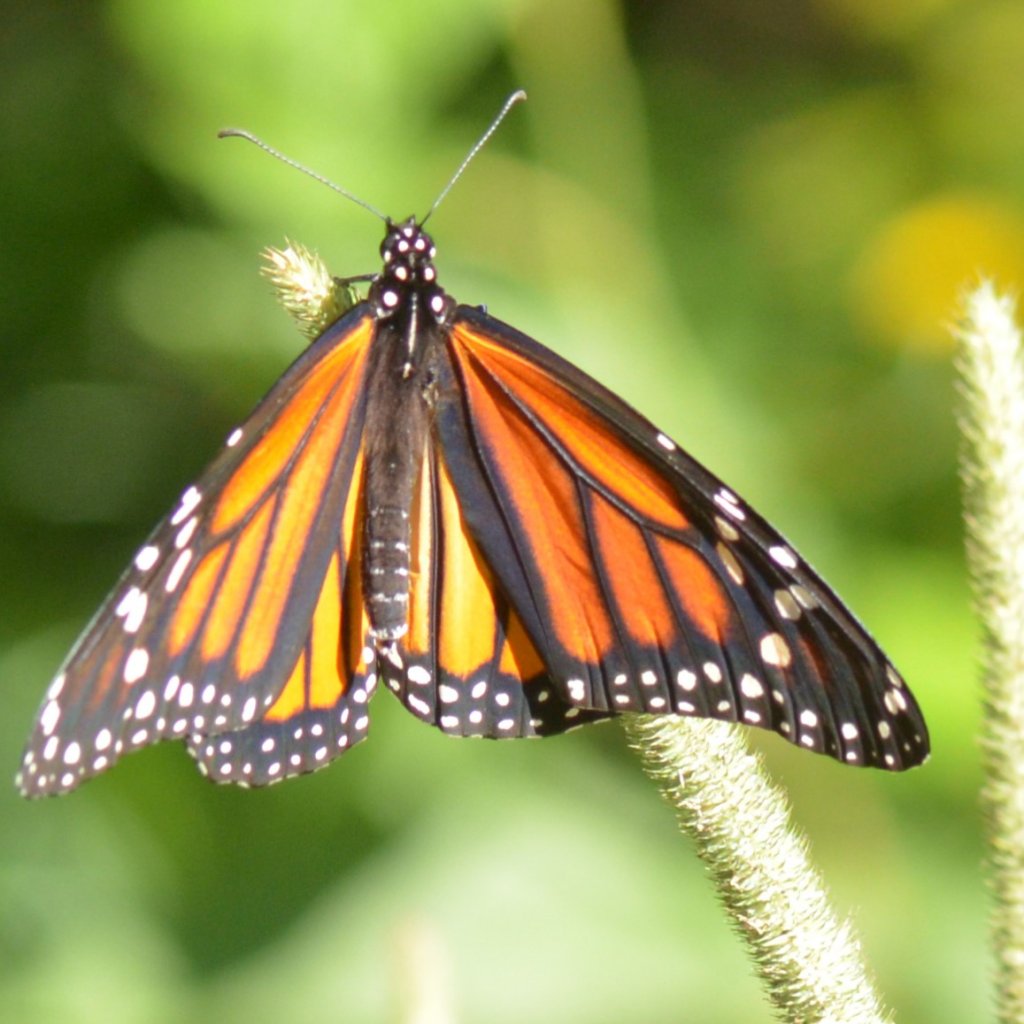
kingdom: Animalia
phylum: Arthropoda
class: Insecta
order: Lepidoptera
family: Nymphalidae
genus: Danaus
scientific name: Danaus plexippus
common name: Monarch
